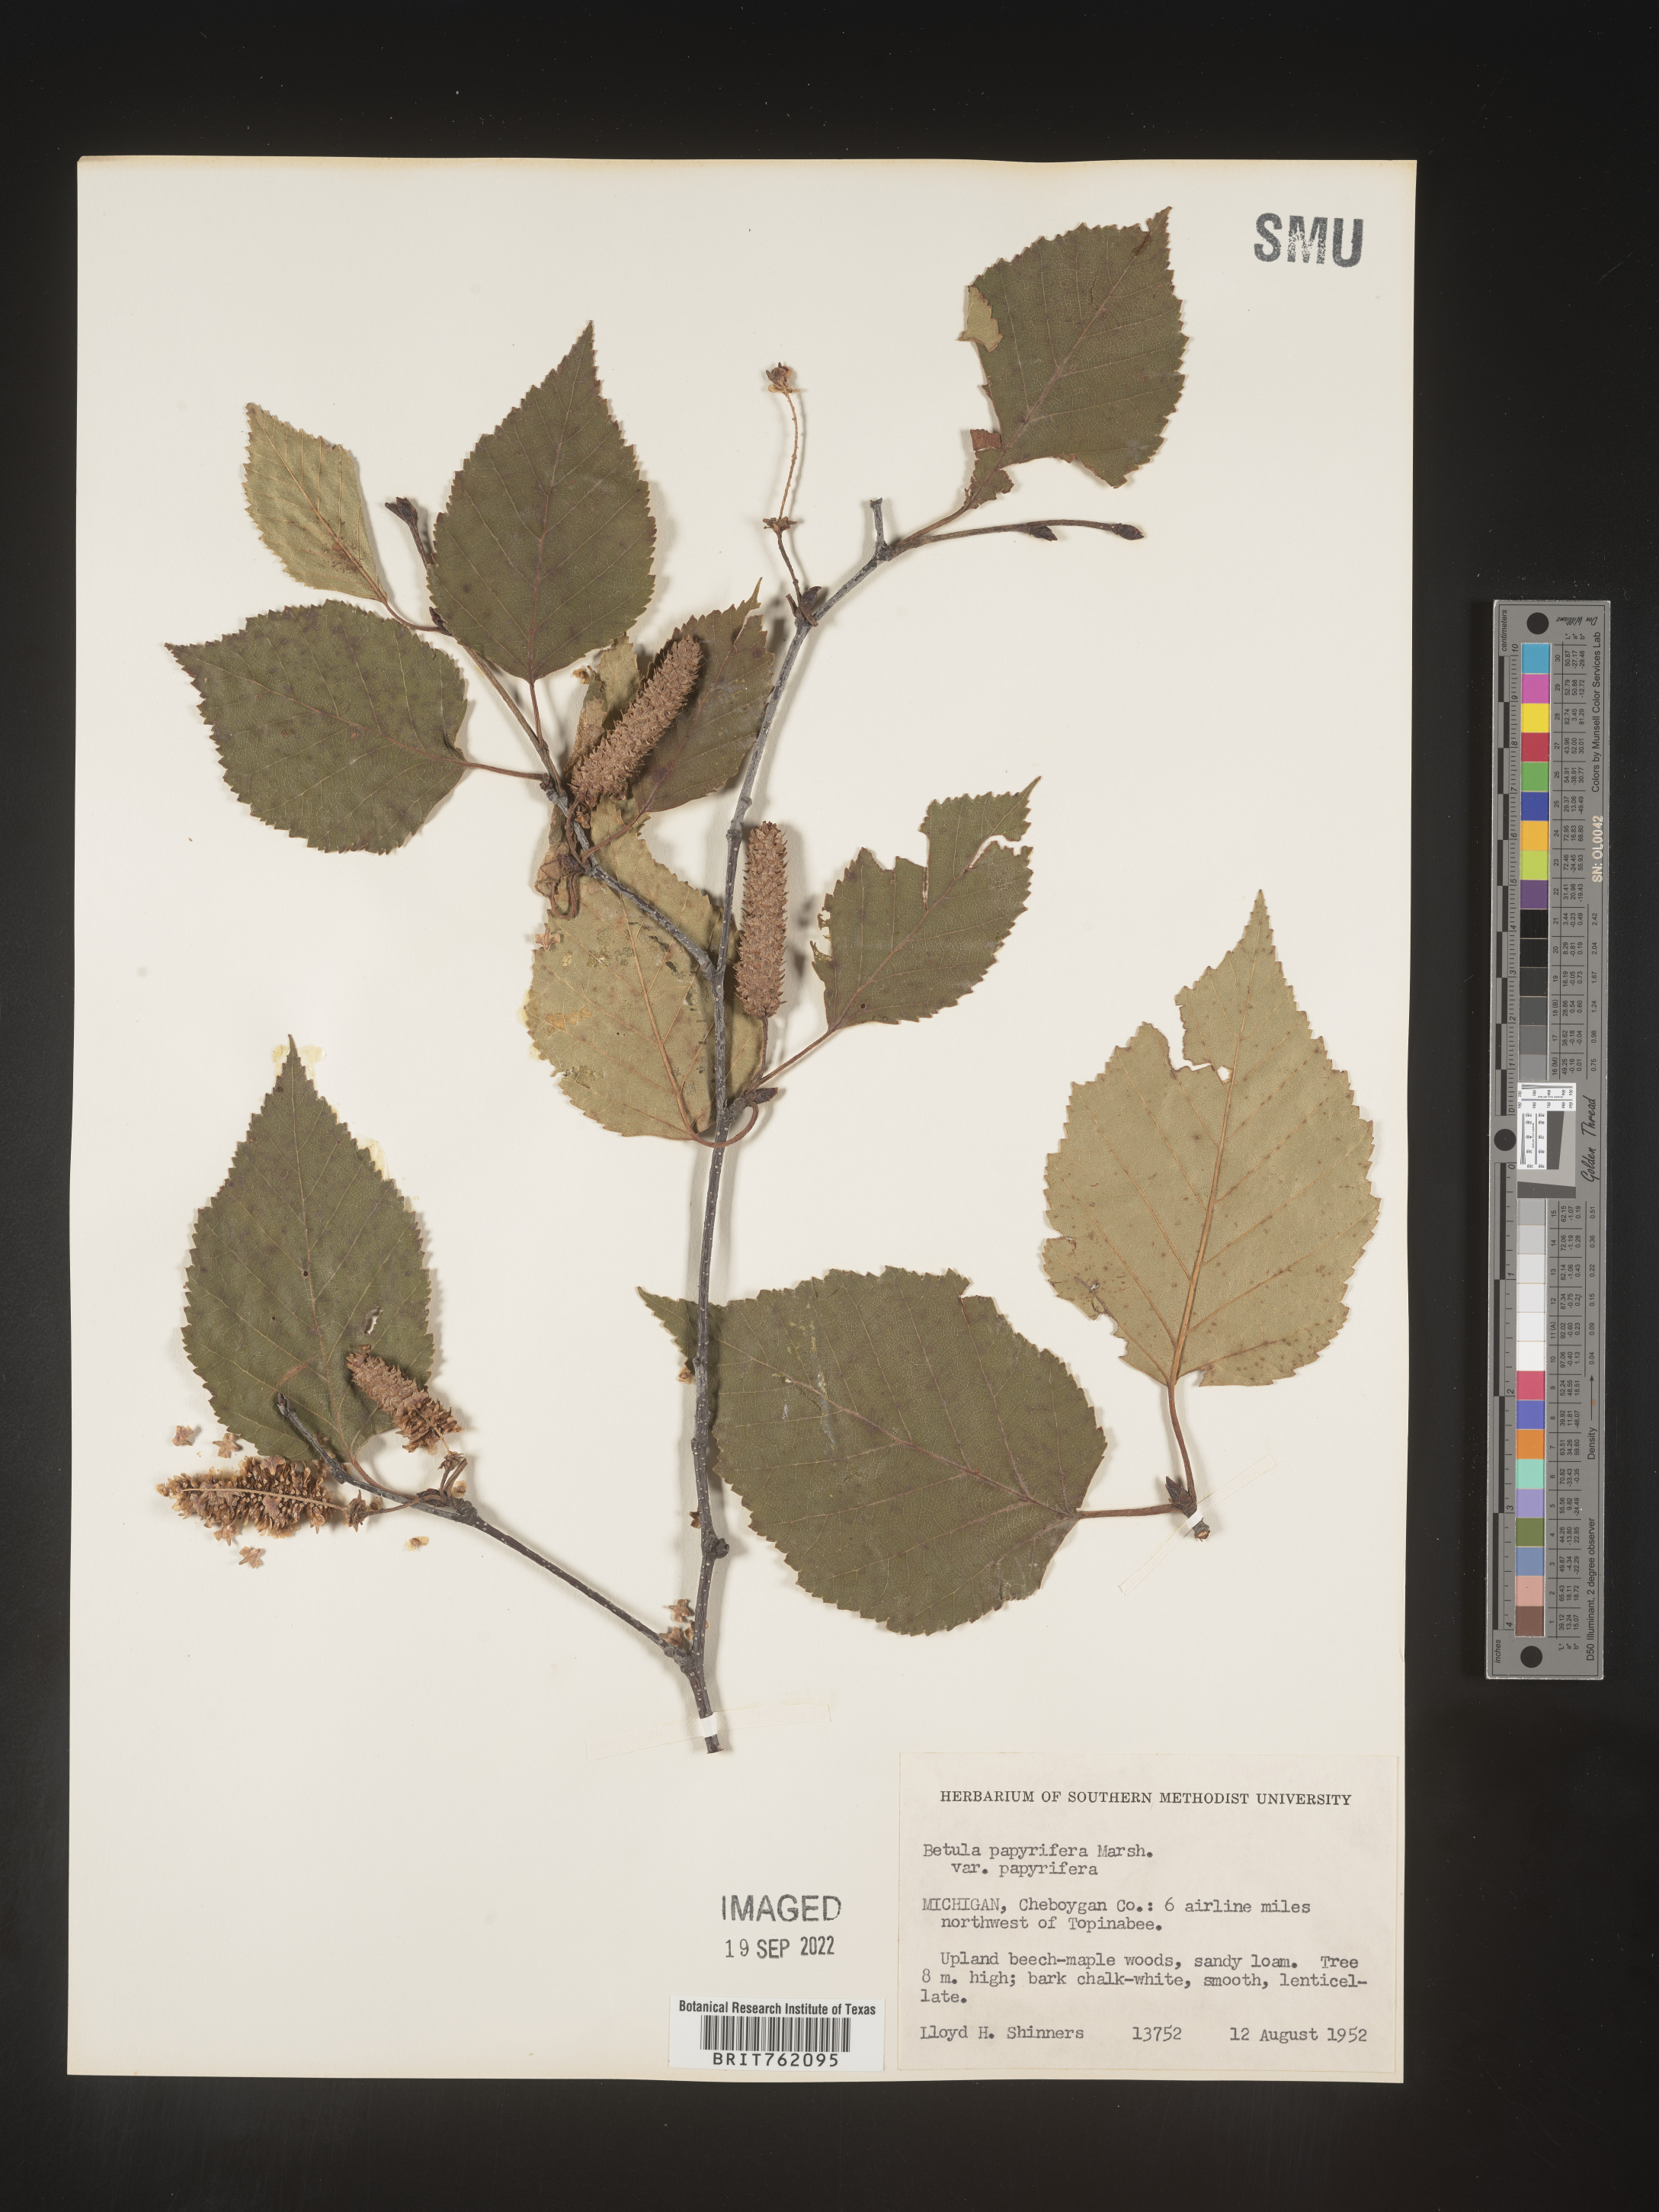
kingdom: Plantae
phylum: Tracheophyta
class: Magnoliopsida
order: Fagales
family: Betulaceae
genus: Betula
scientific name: Betula papyrifera
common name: Paper birch
